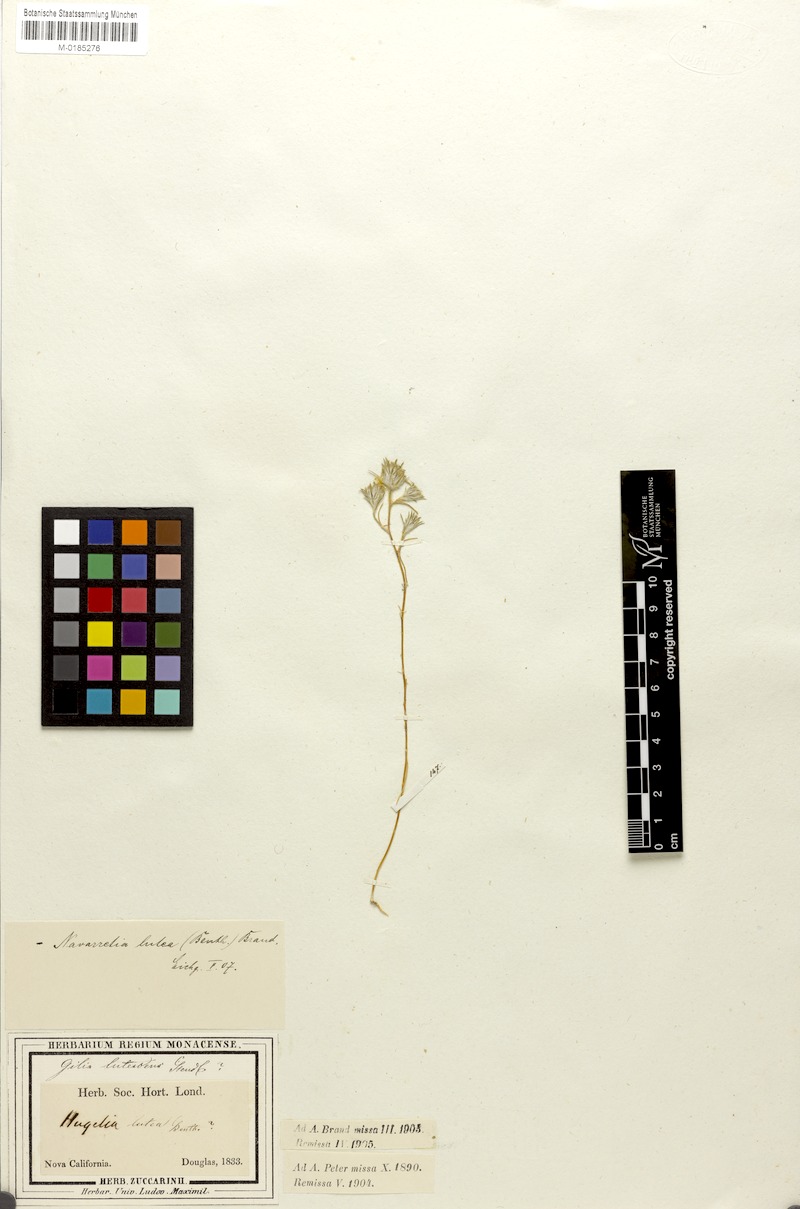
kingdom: Plantae
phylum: Tracheophyta
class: Magnoliopsida
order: Ericales
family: Polemoniaceae
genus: Eriastrum
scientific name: Eriastrum luteum
